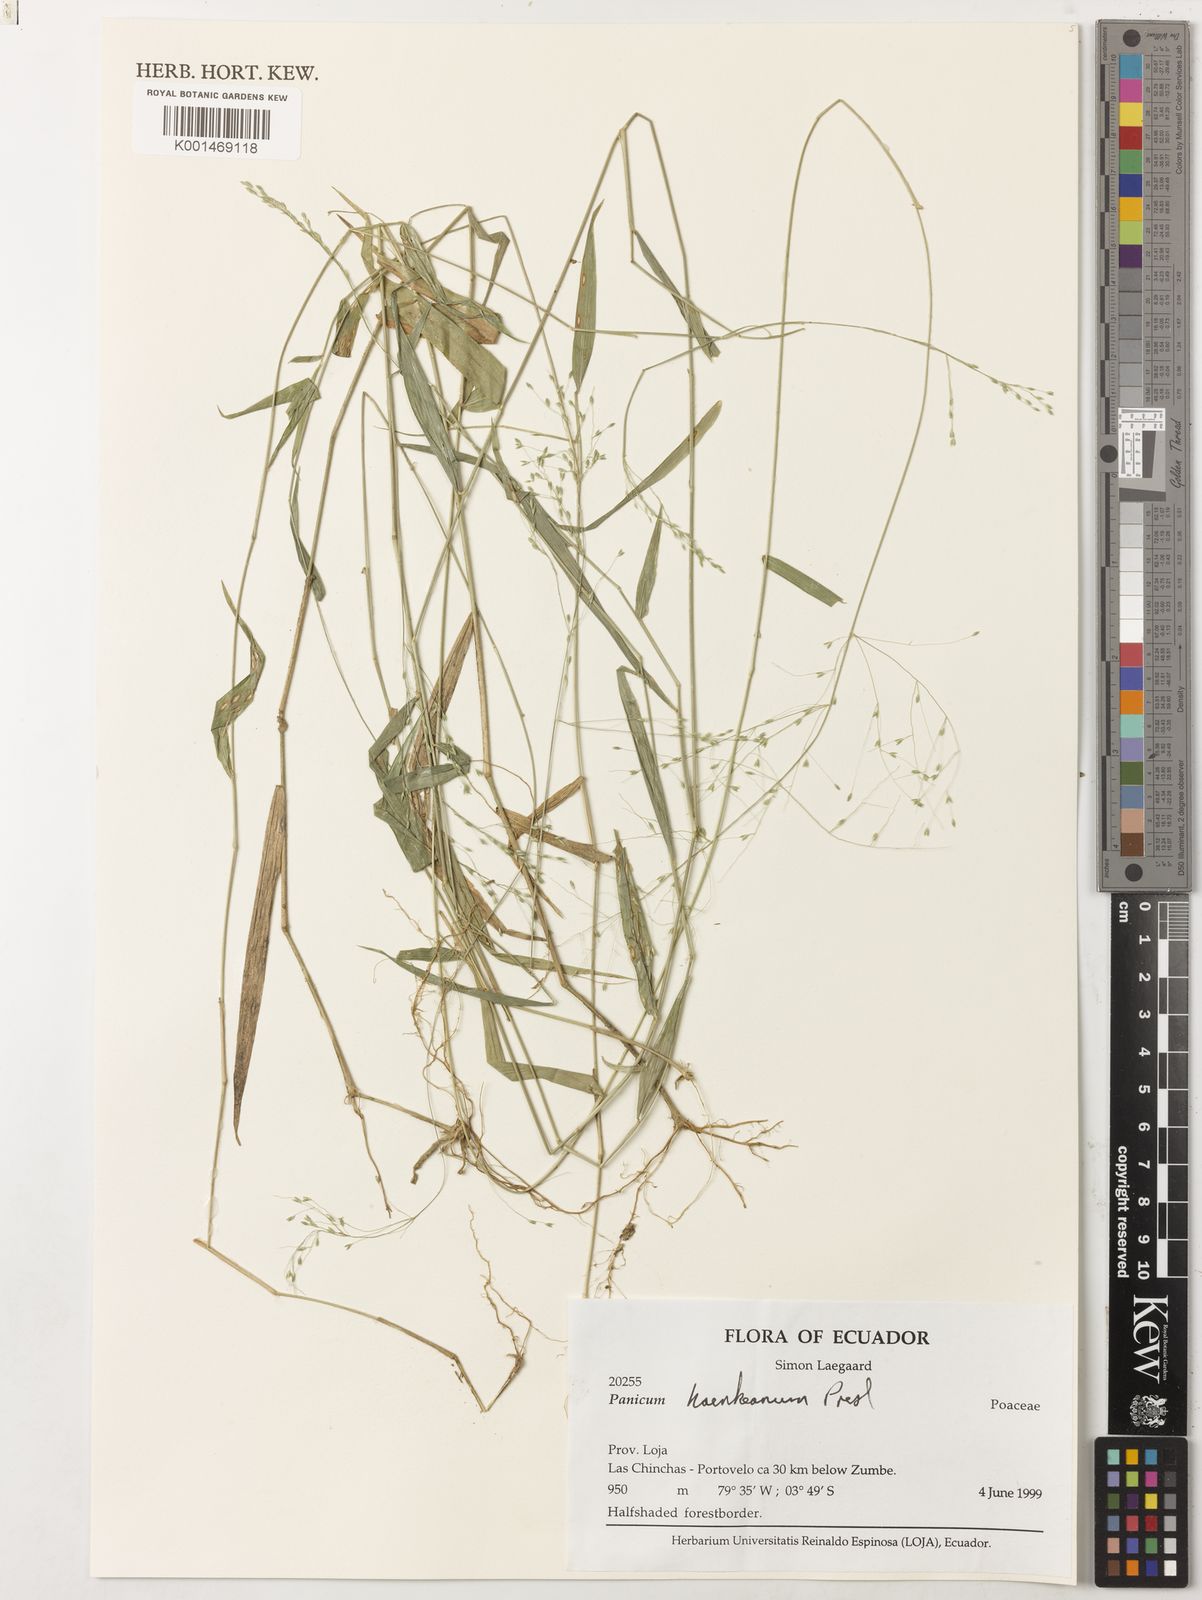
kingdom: Plantae
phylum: Tracheophyta
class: Liliopsida
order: Poales
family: Poaceae
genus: Panicum
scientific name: Panicum haenkeanum
